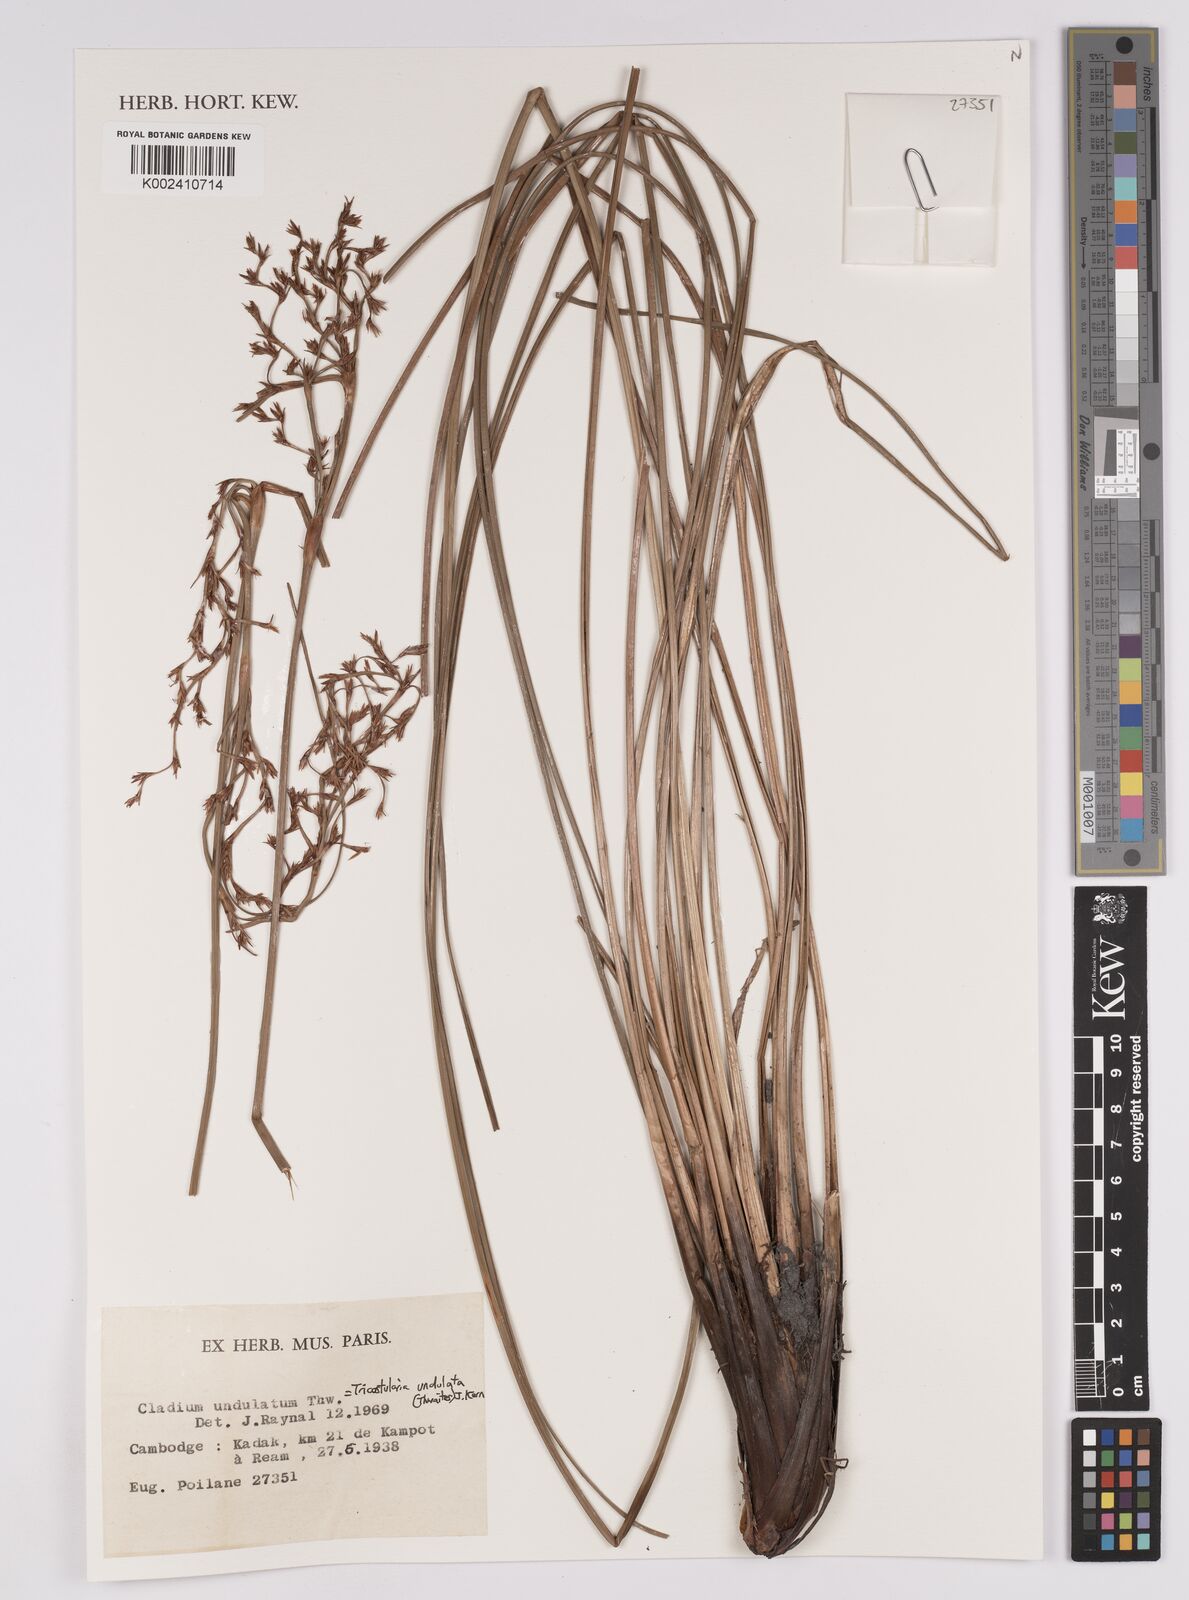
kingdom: Plantae
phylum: Tracheophyta
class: Liliopsida
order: Poales
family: Cyperaceae
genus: Anthelepis
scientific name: Anthelepis undulata
